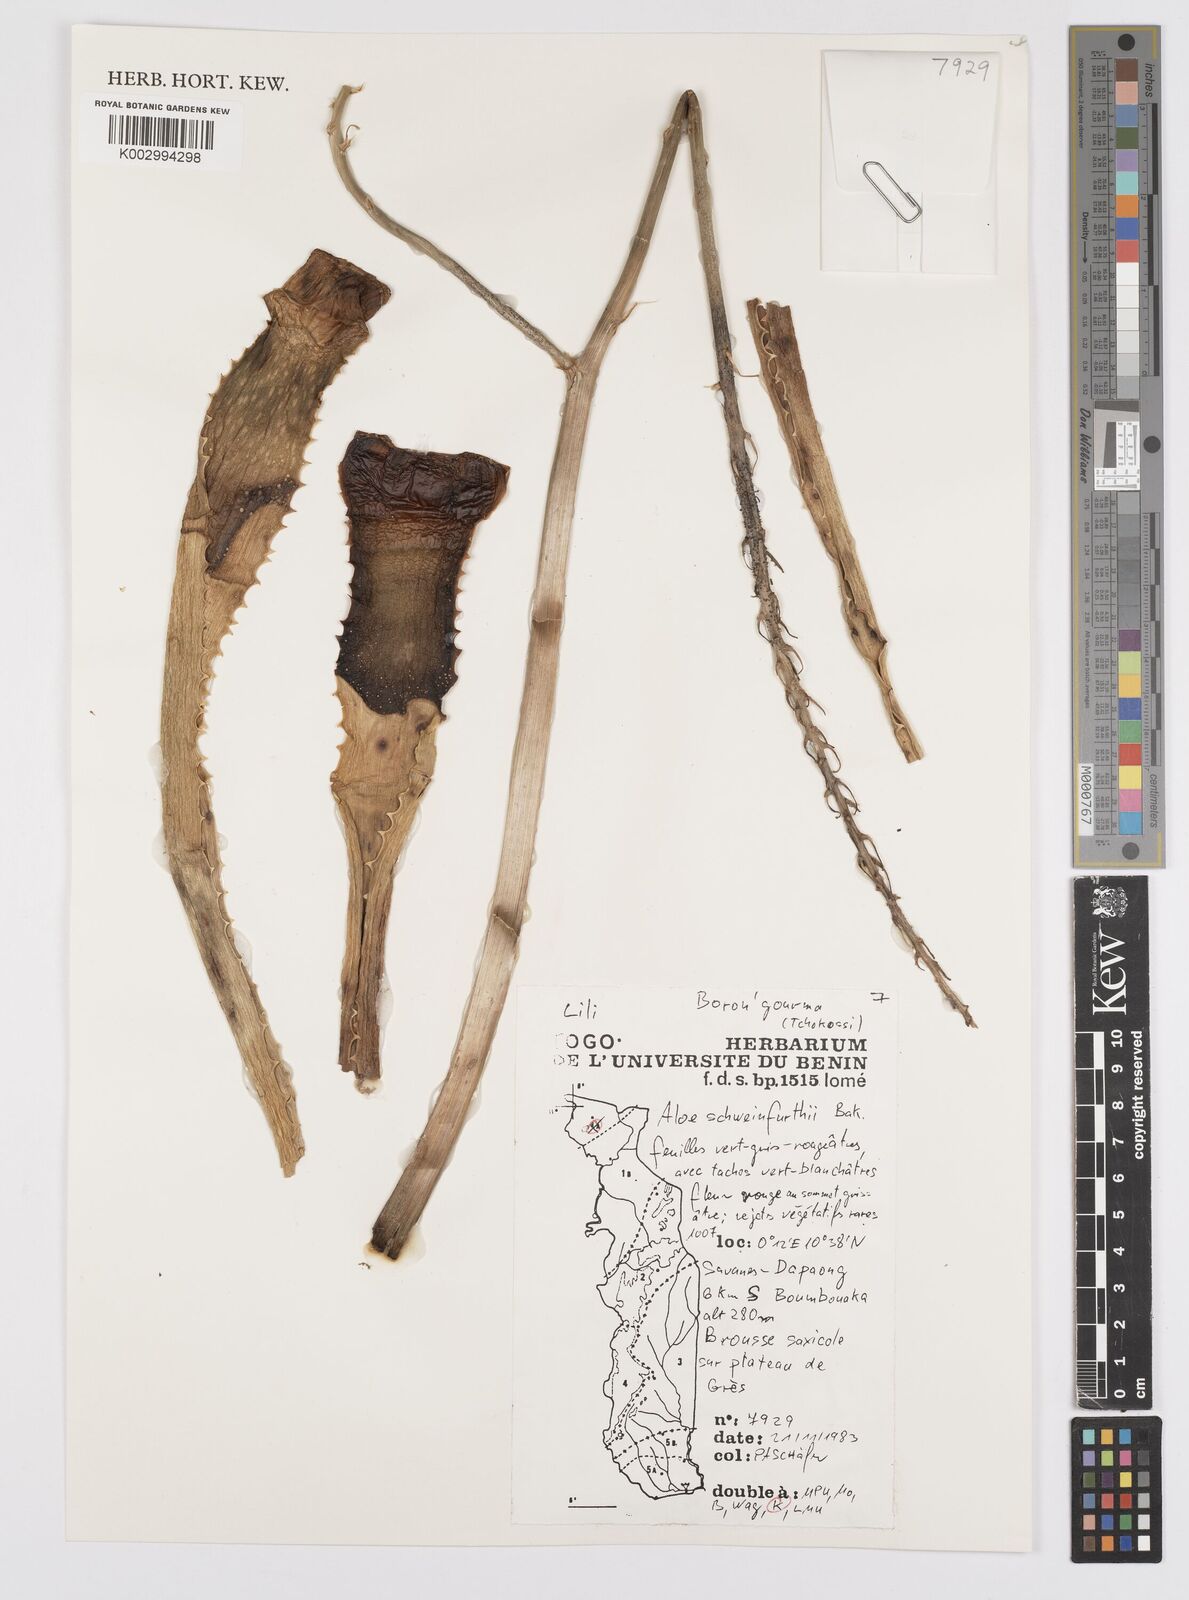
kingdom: Plantae
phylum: Tracheophyta
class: Liliopsida
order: Asparagales
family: Asphodelaceae
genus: Aloe
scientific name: Aloe schweinfurthii
